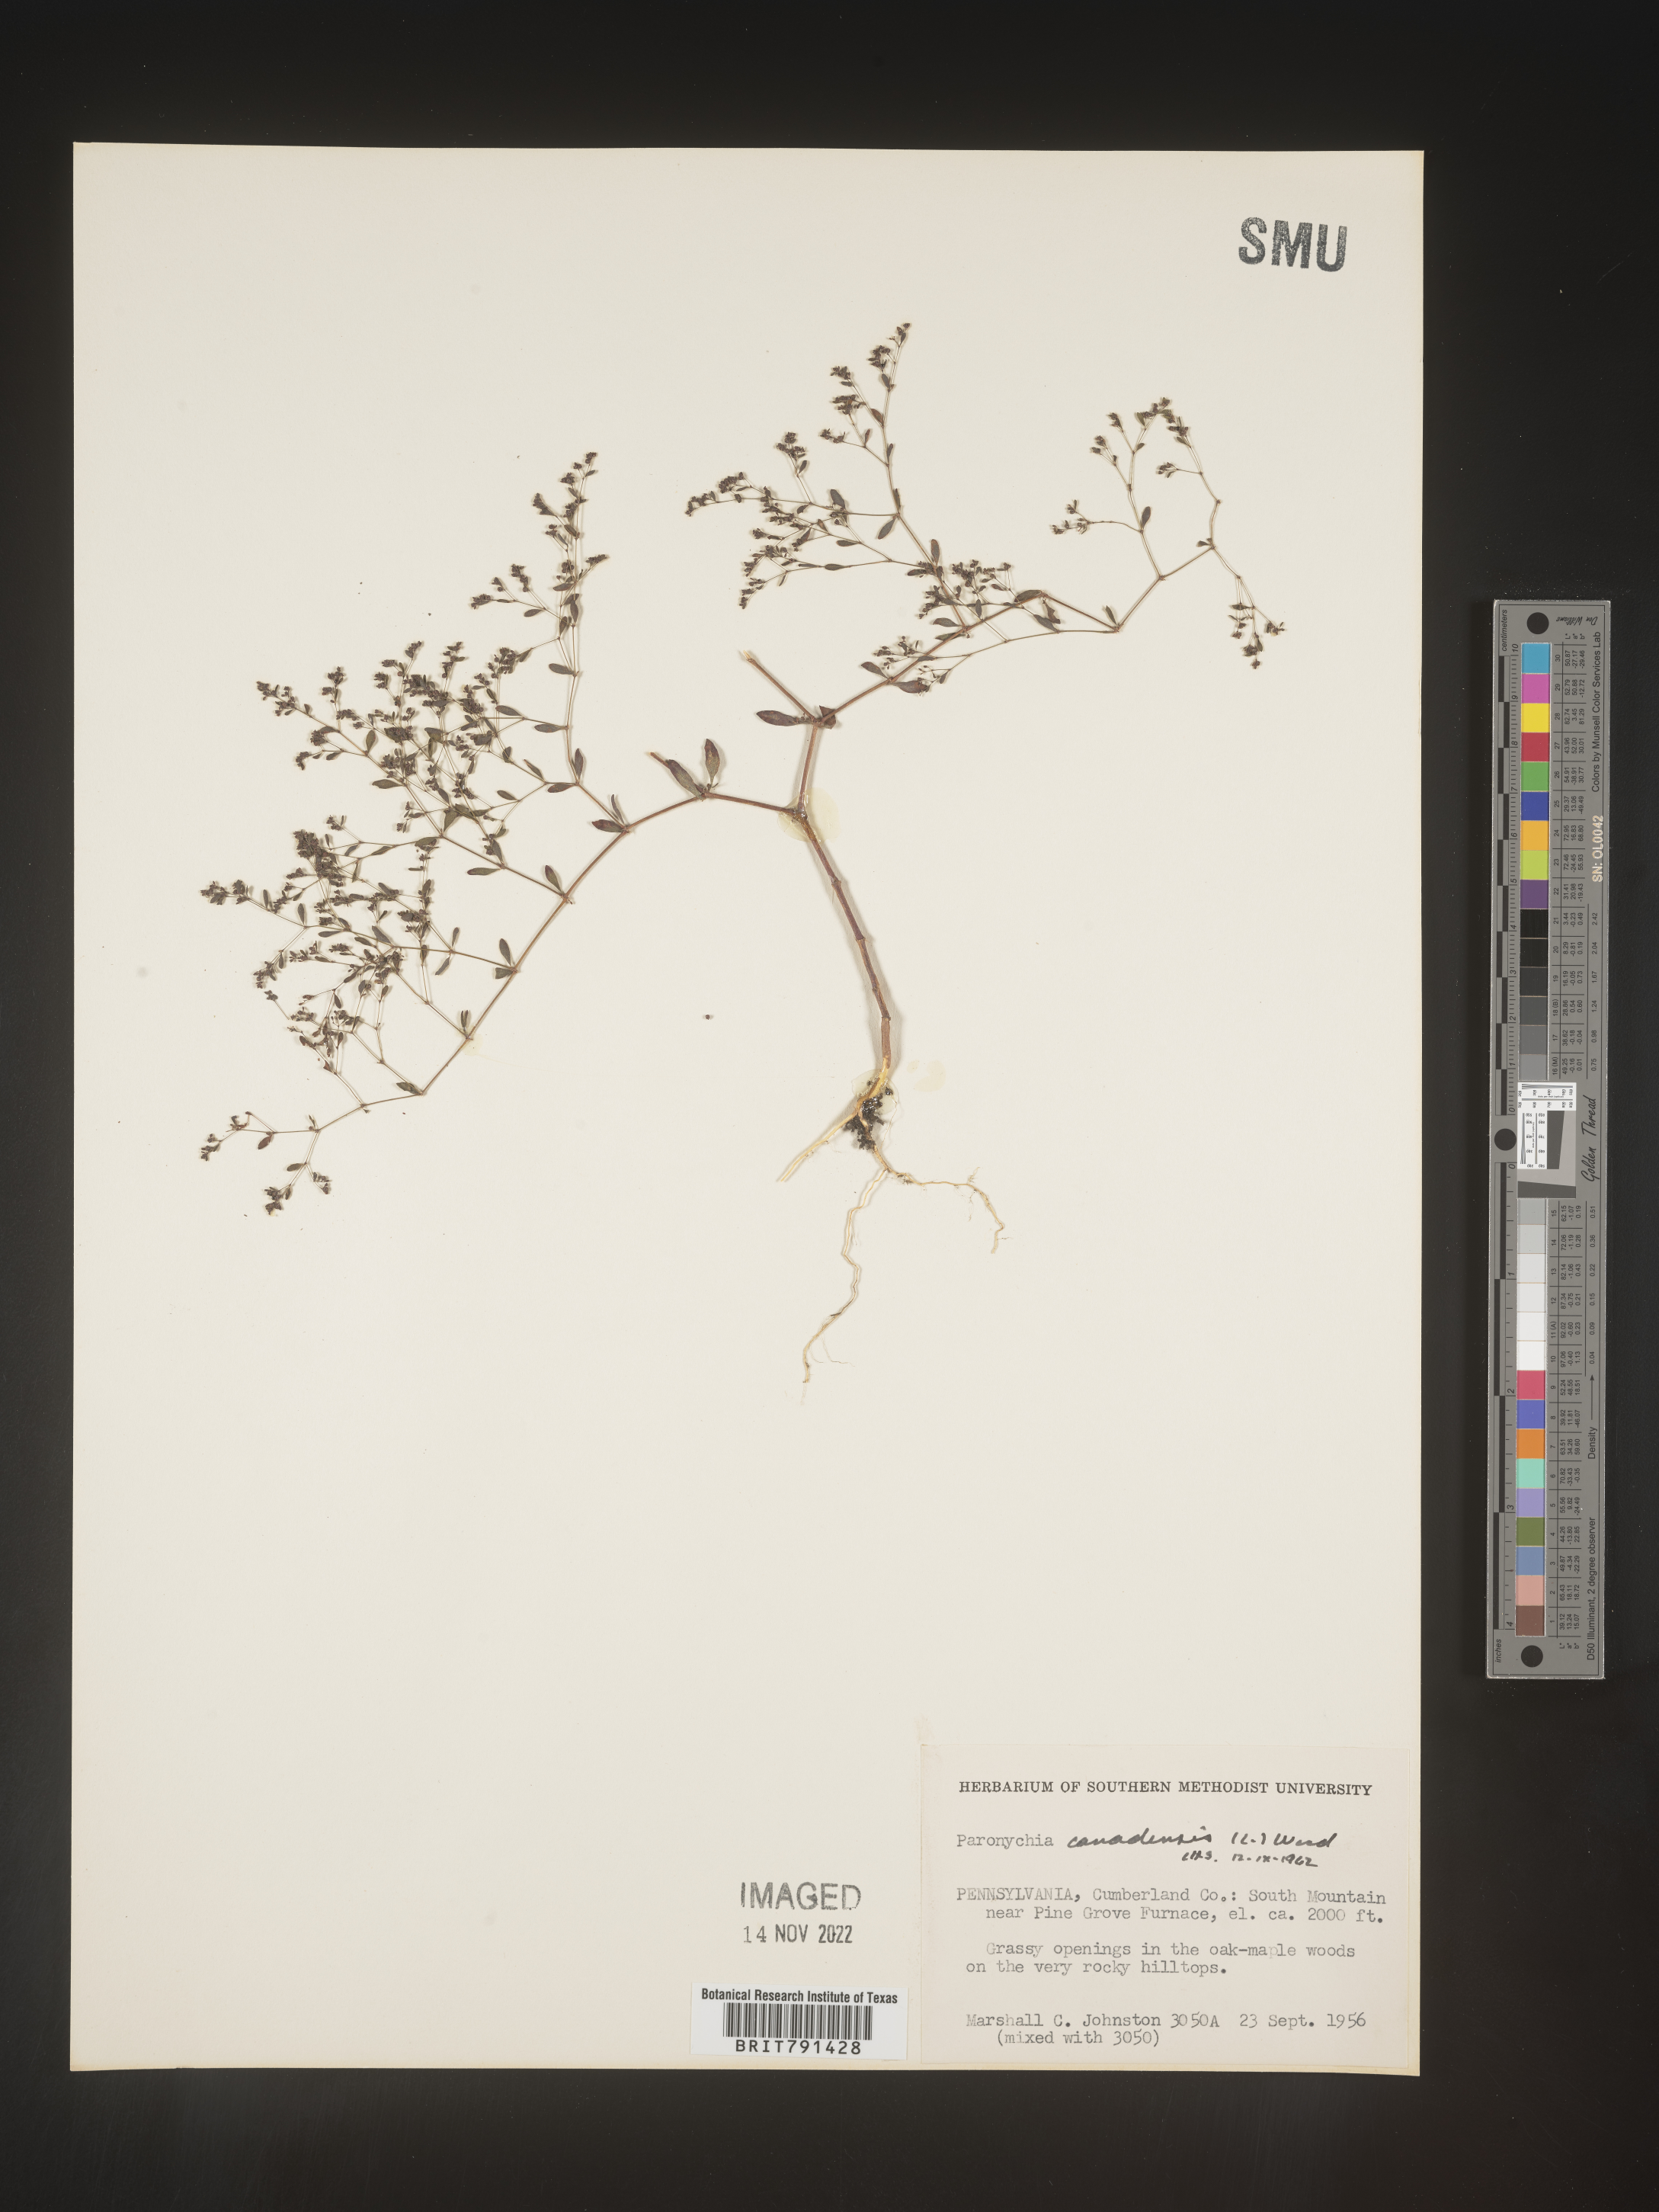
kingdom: Plantae
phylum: Tracheophyta
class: Magnoliopsida
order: Caryophyllales
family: Caryophyllaceae
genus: Paronychia
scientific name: Paronychia canadensis
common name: Canada forked nailwort
